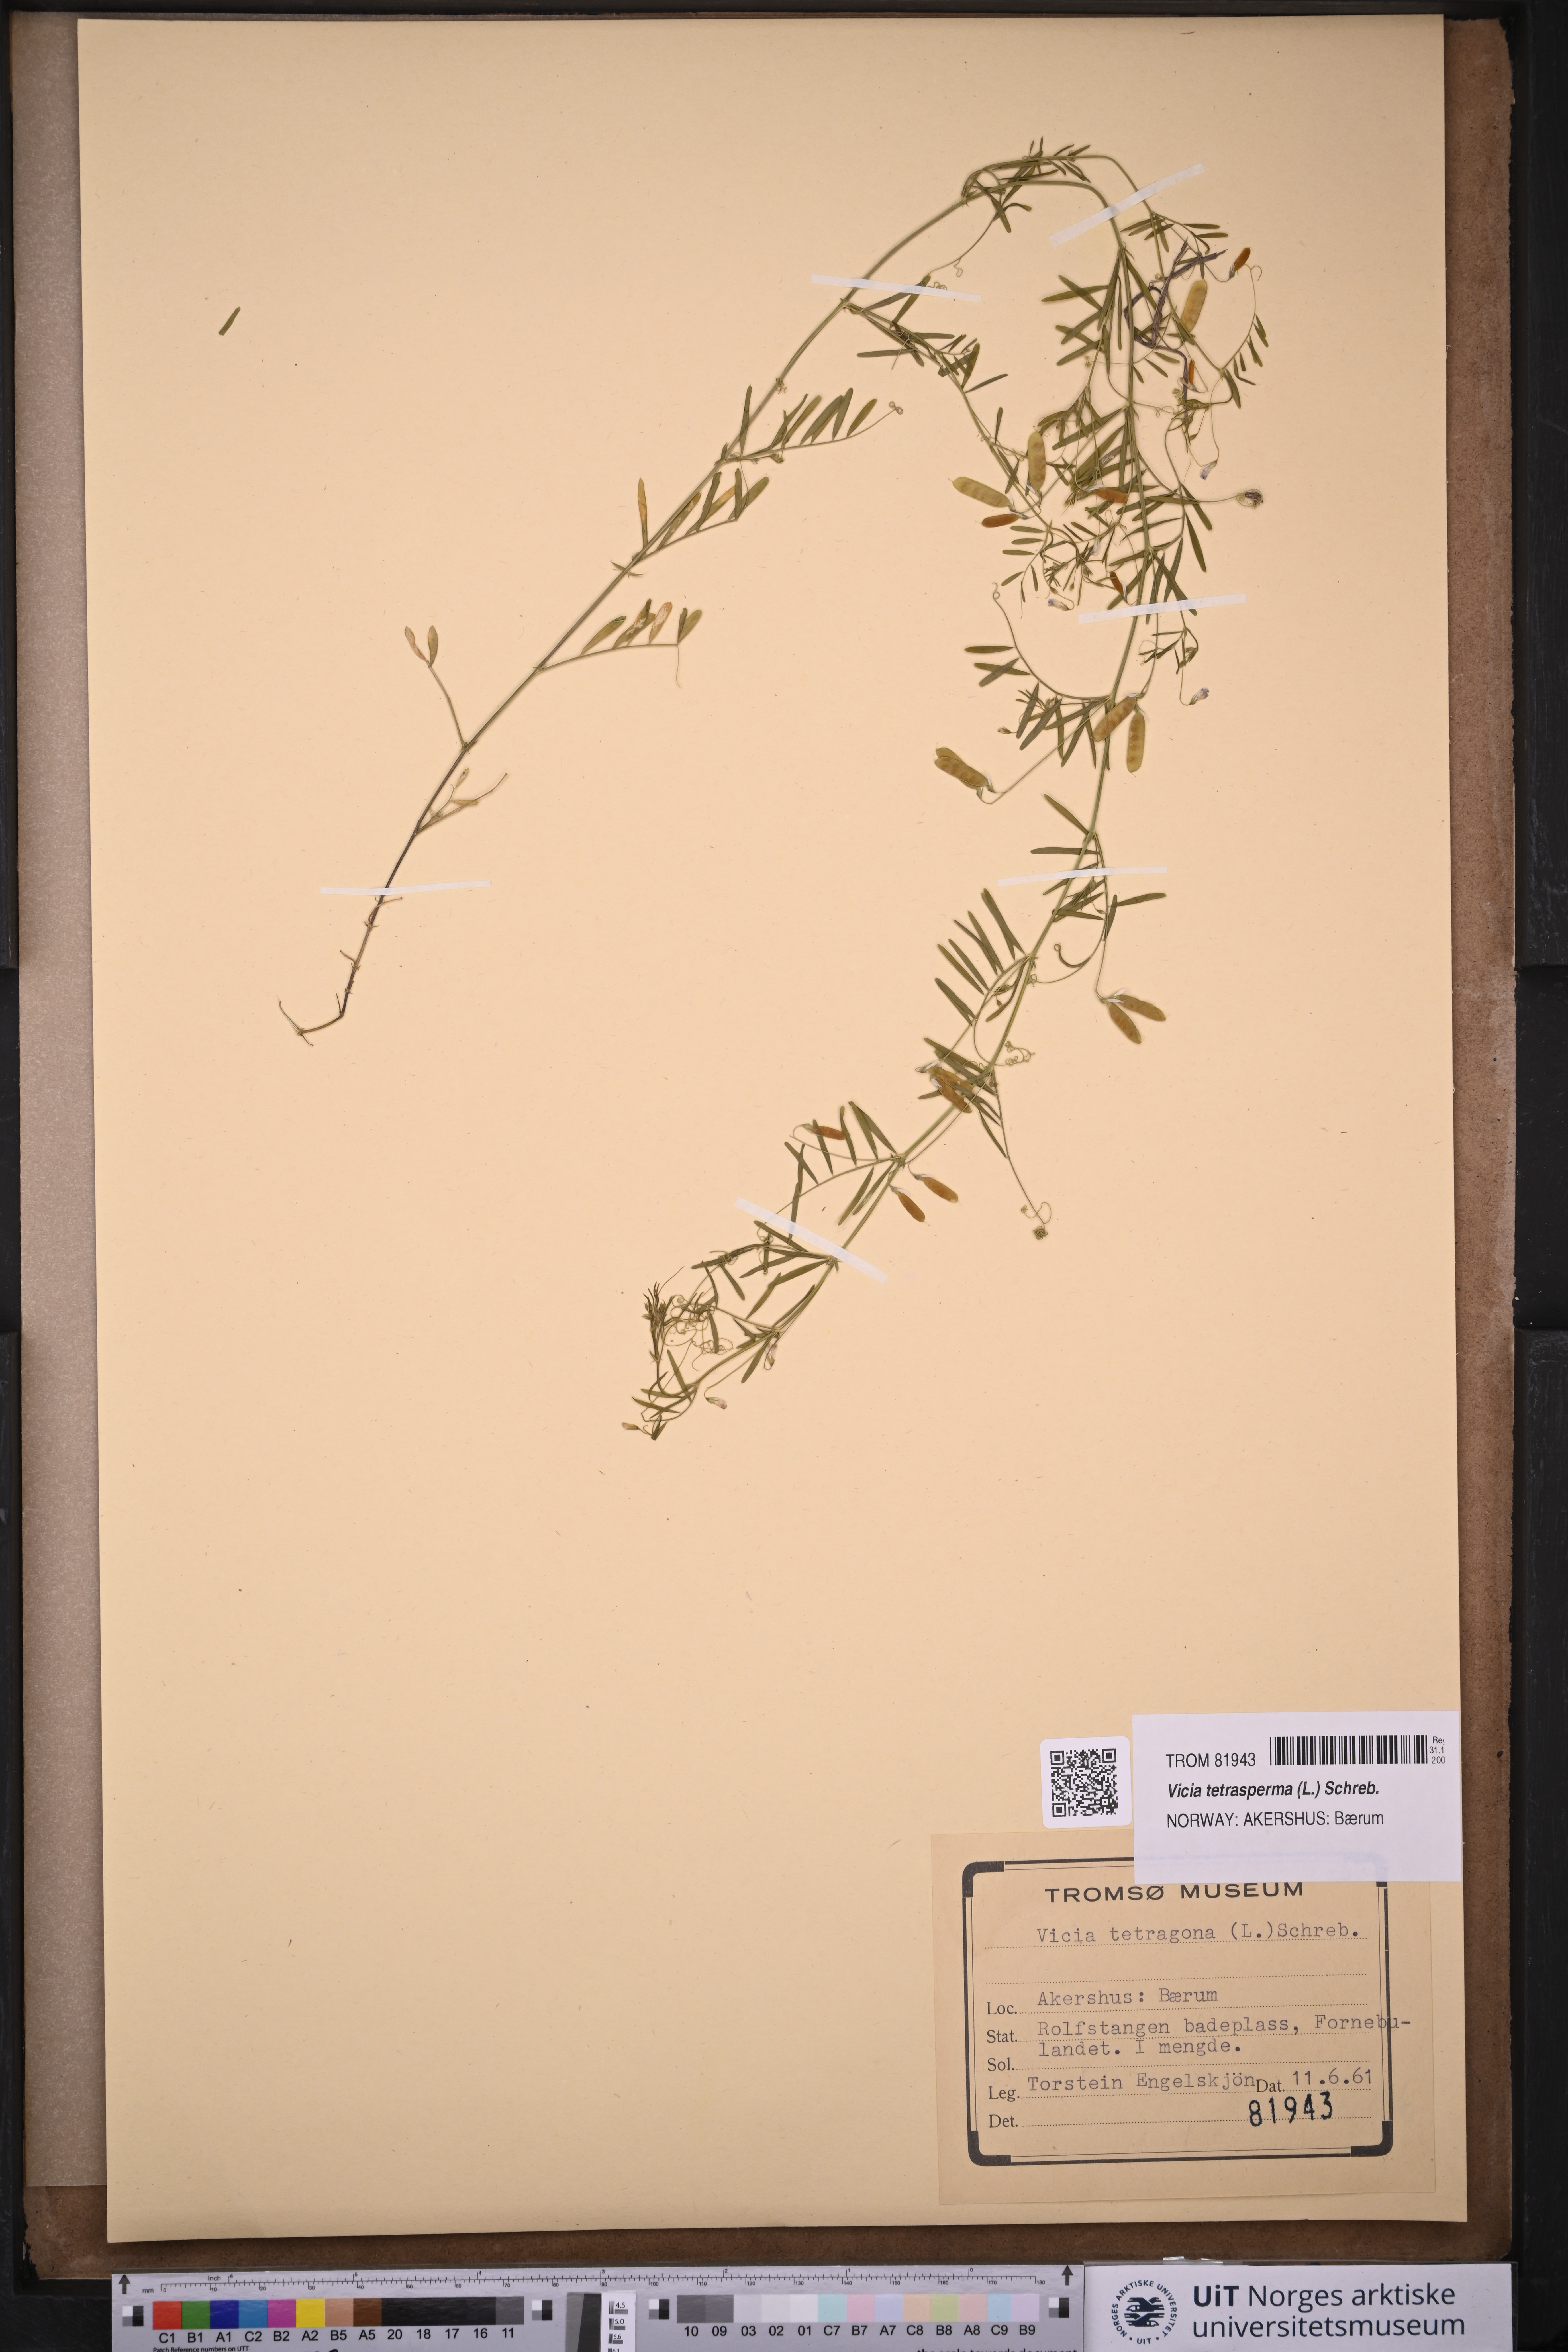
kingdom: Plantae
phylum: Tracheophyta
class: Magnoliopsida
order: Fabales
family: Fabaceae
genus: Vicia
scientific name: Vicia tetrasperma
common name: Smooth tare
